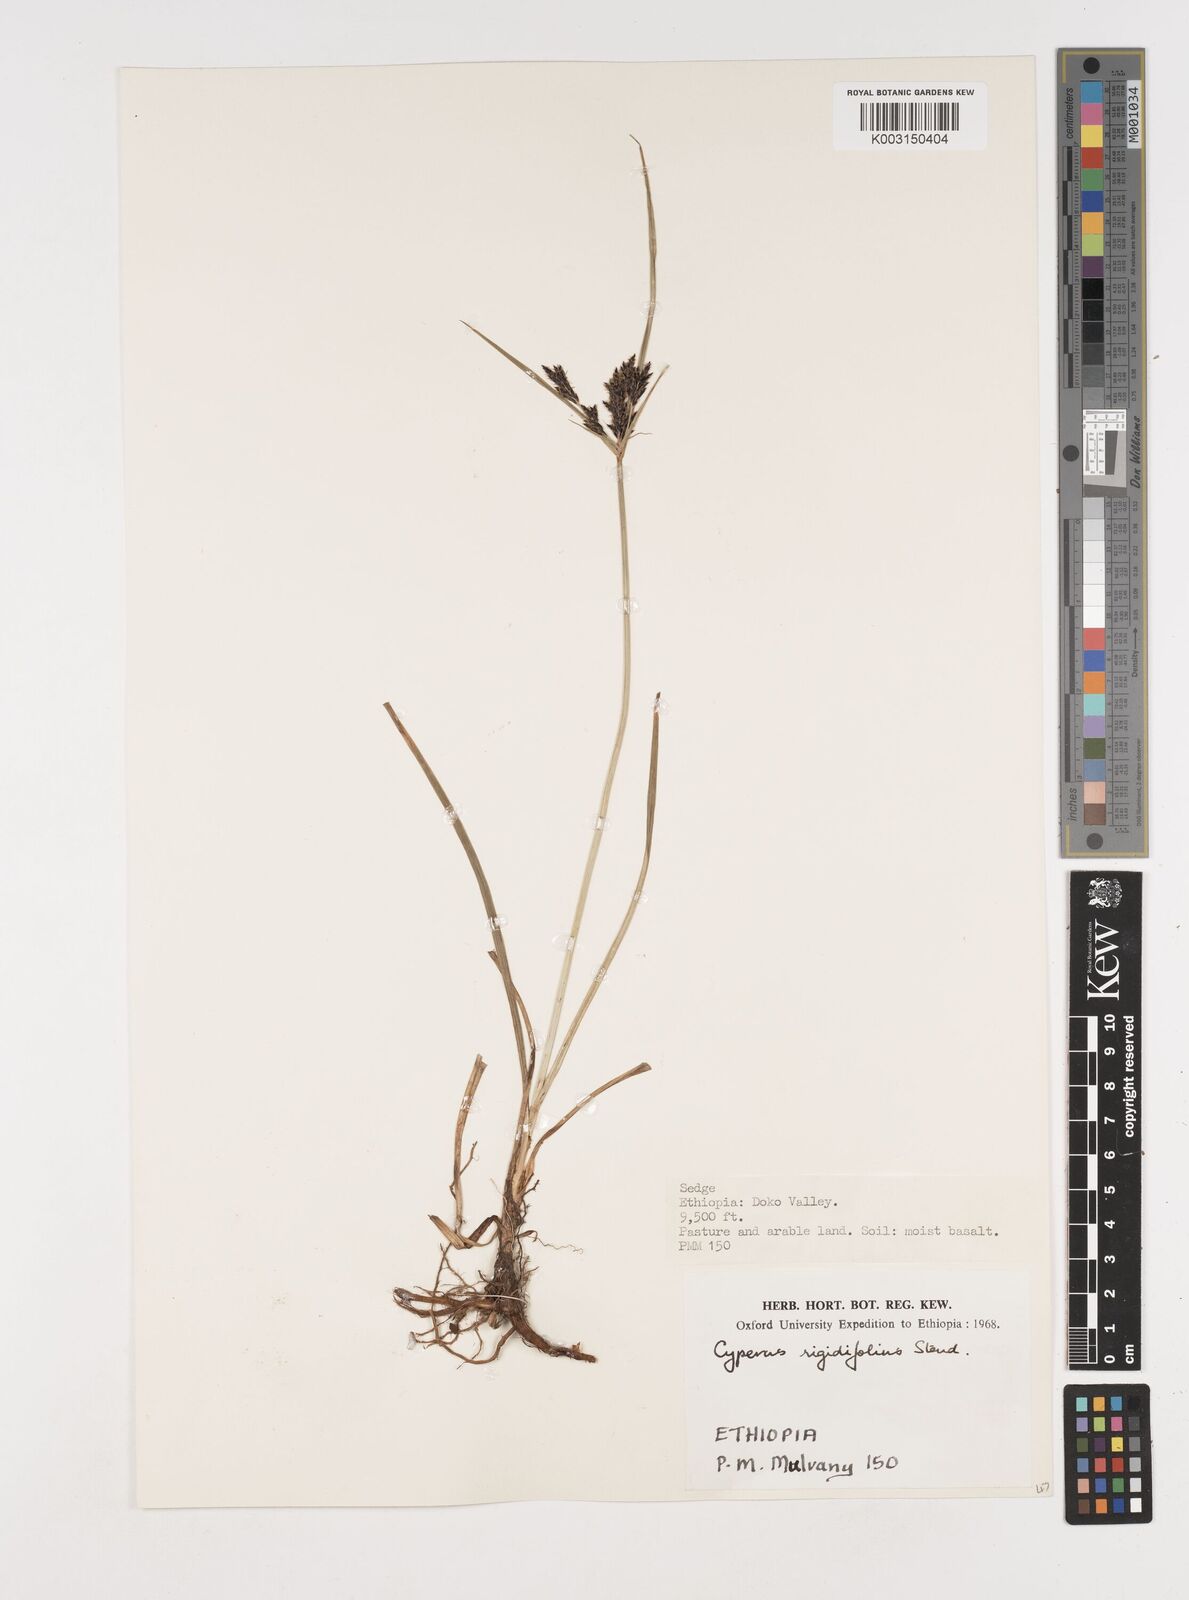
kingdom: Plantae
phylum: Tracheophyta
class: Liliopsida
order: Poales
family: Cyperaceae
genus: Cyperus
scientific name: Cyperus rigidifolius
